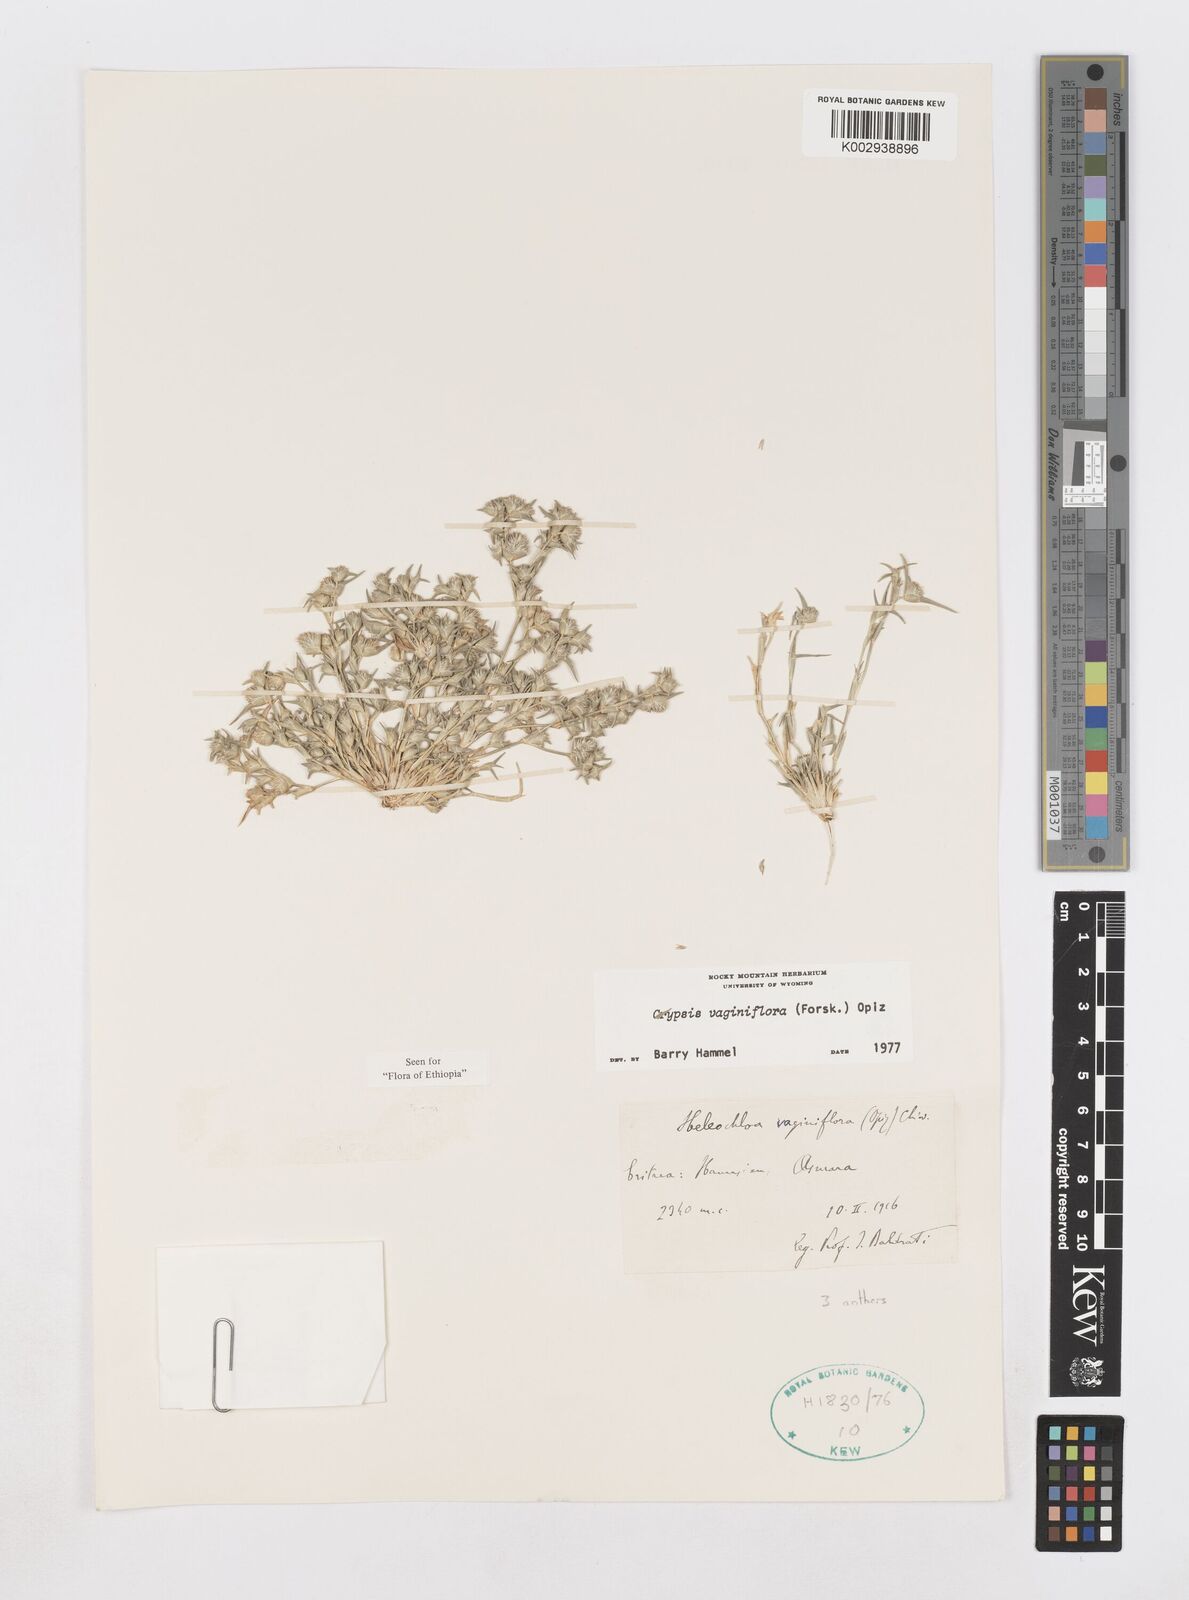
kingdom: Plantae
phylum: Tracheophyta
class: Liliopsida
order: Poales
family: Poaceae
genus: Sporobolus
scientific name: Sporobolus niliacus
